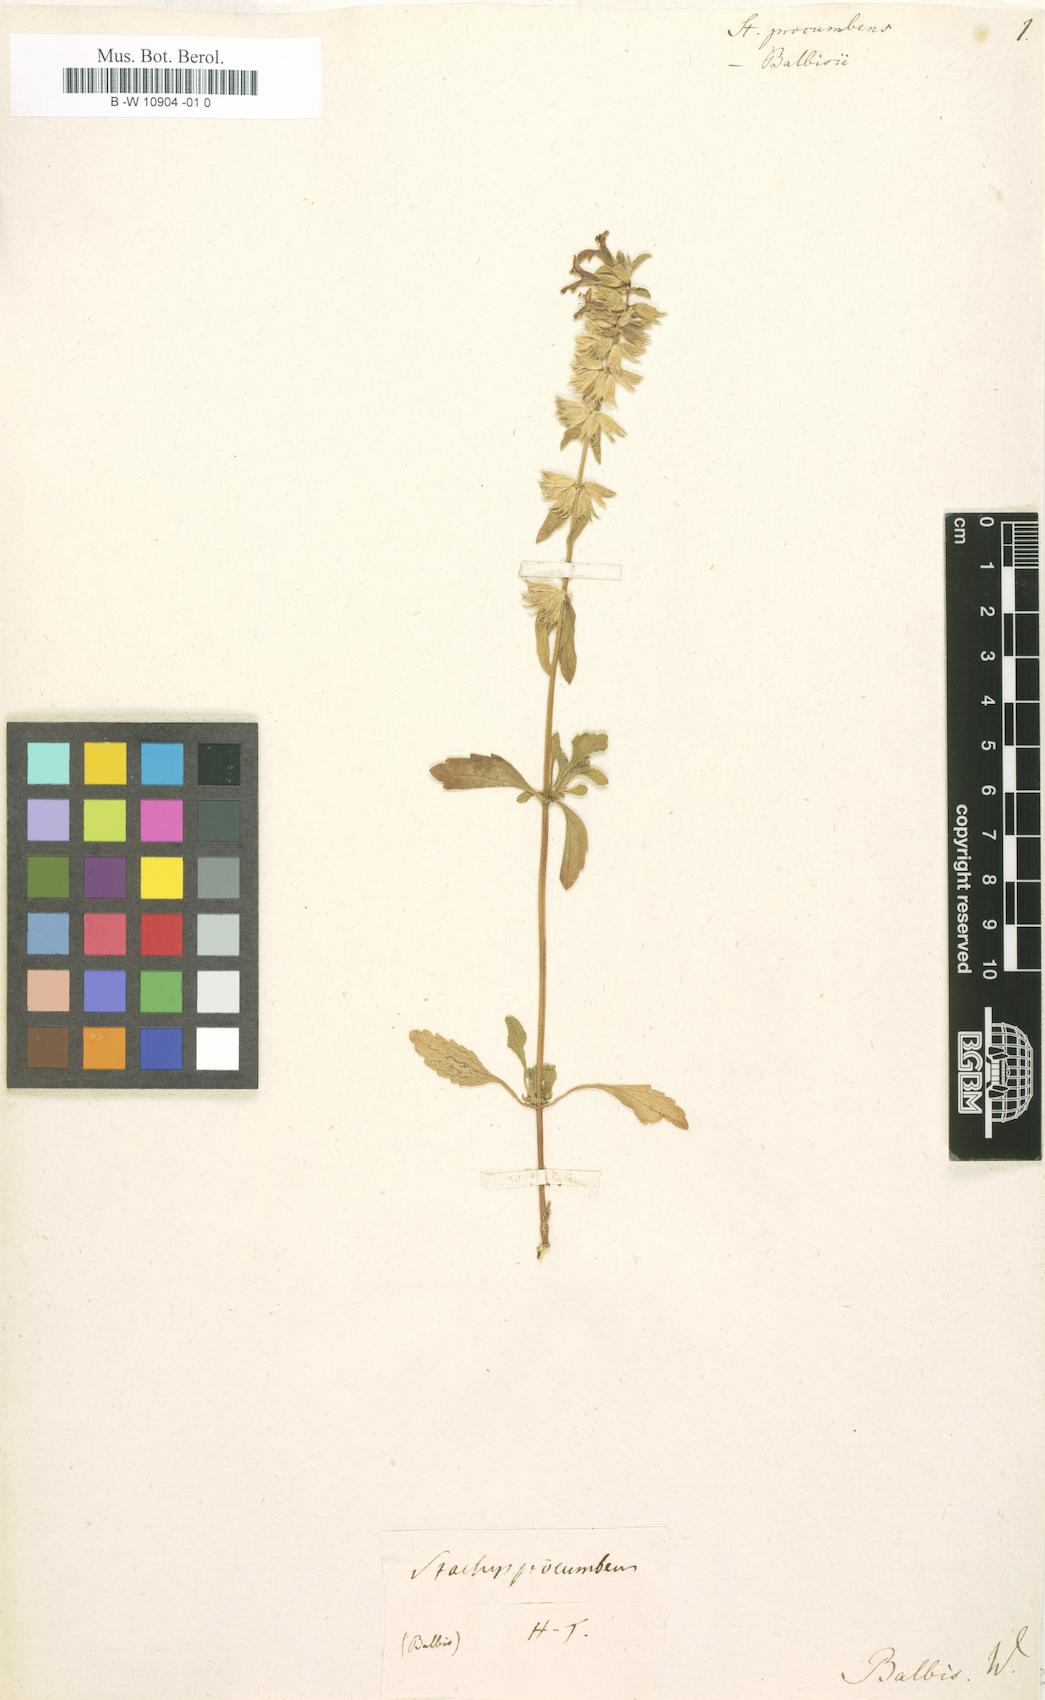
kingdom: Plantae
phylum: Tracheophyta
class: Magnoliopsida
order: Lamiales
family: Lamiaceae
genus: Stachys
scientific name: Stachys
